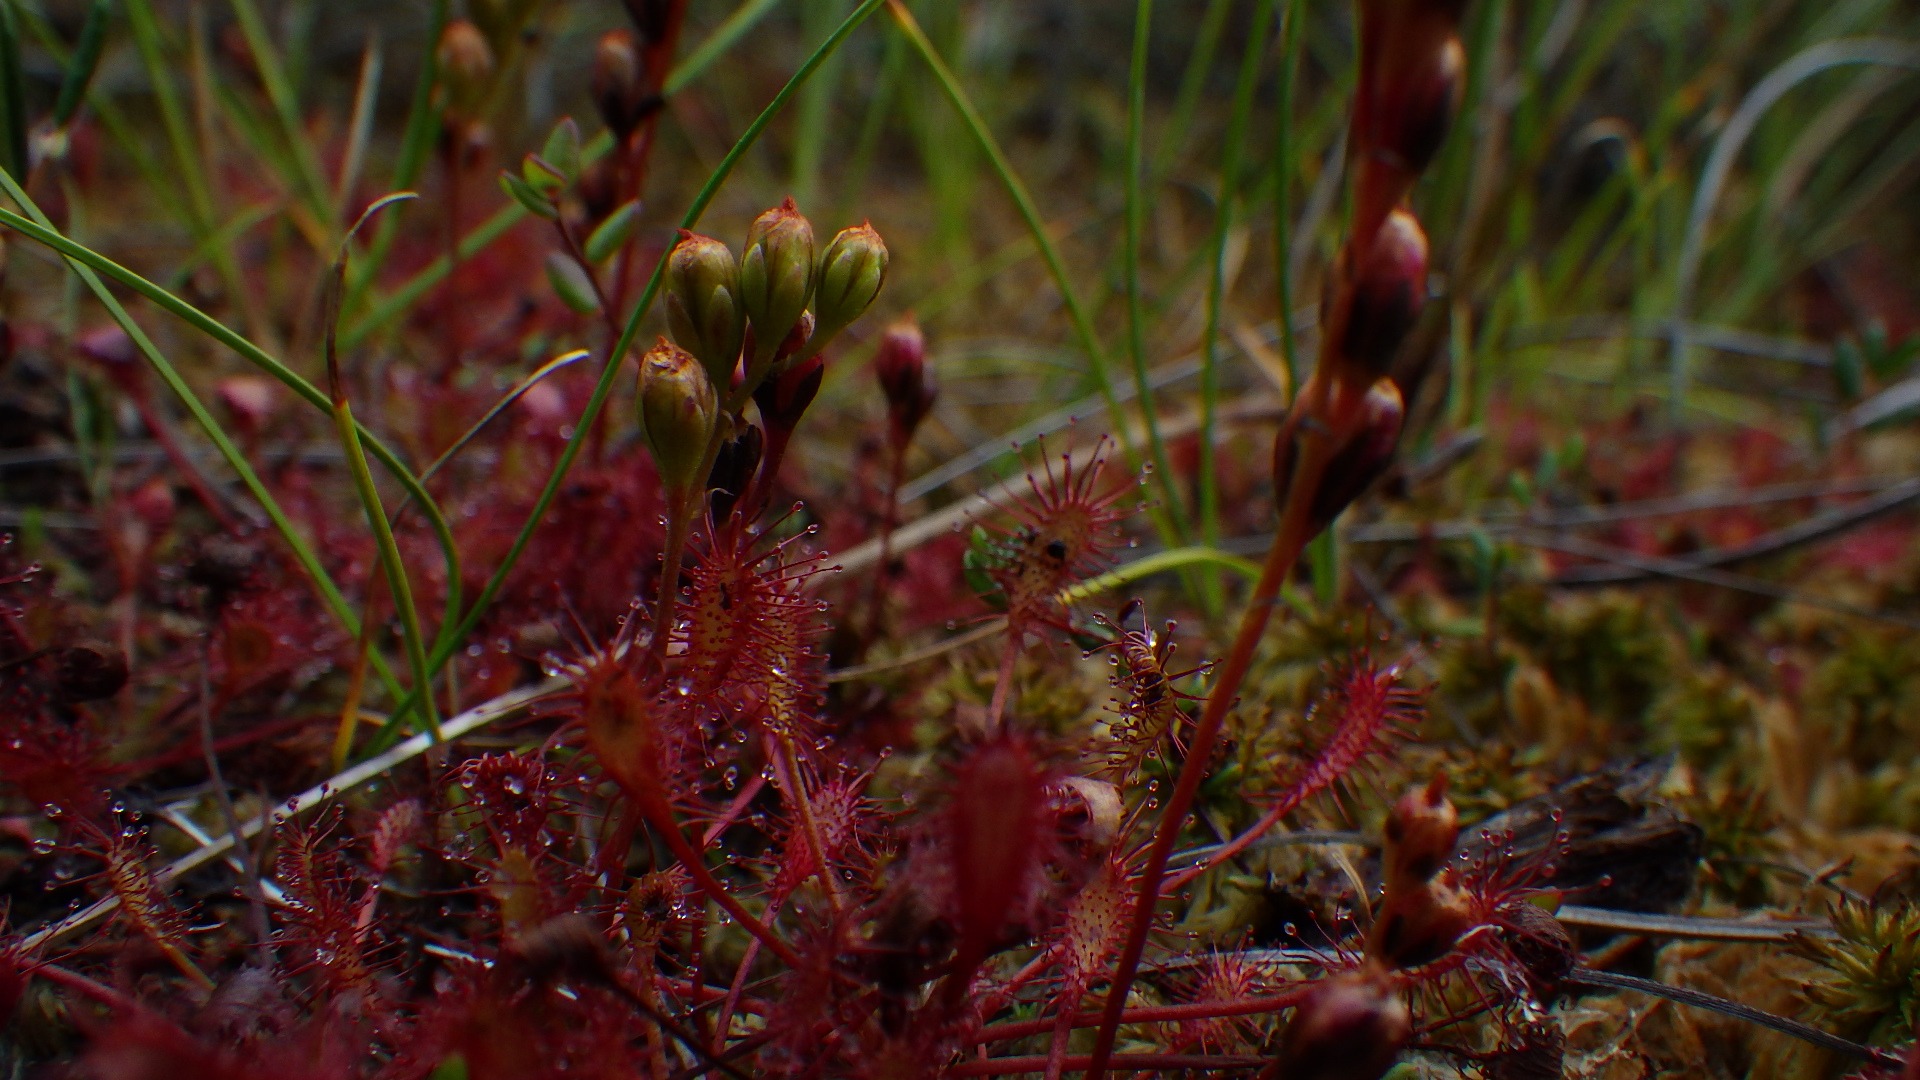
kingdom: Plantae
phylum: Tracheophyta
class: Magnoliopsida
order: Caryophyllales
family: Droseraceae
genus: Drosera
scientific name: Drosera intermedia
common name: Liden soldug
